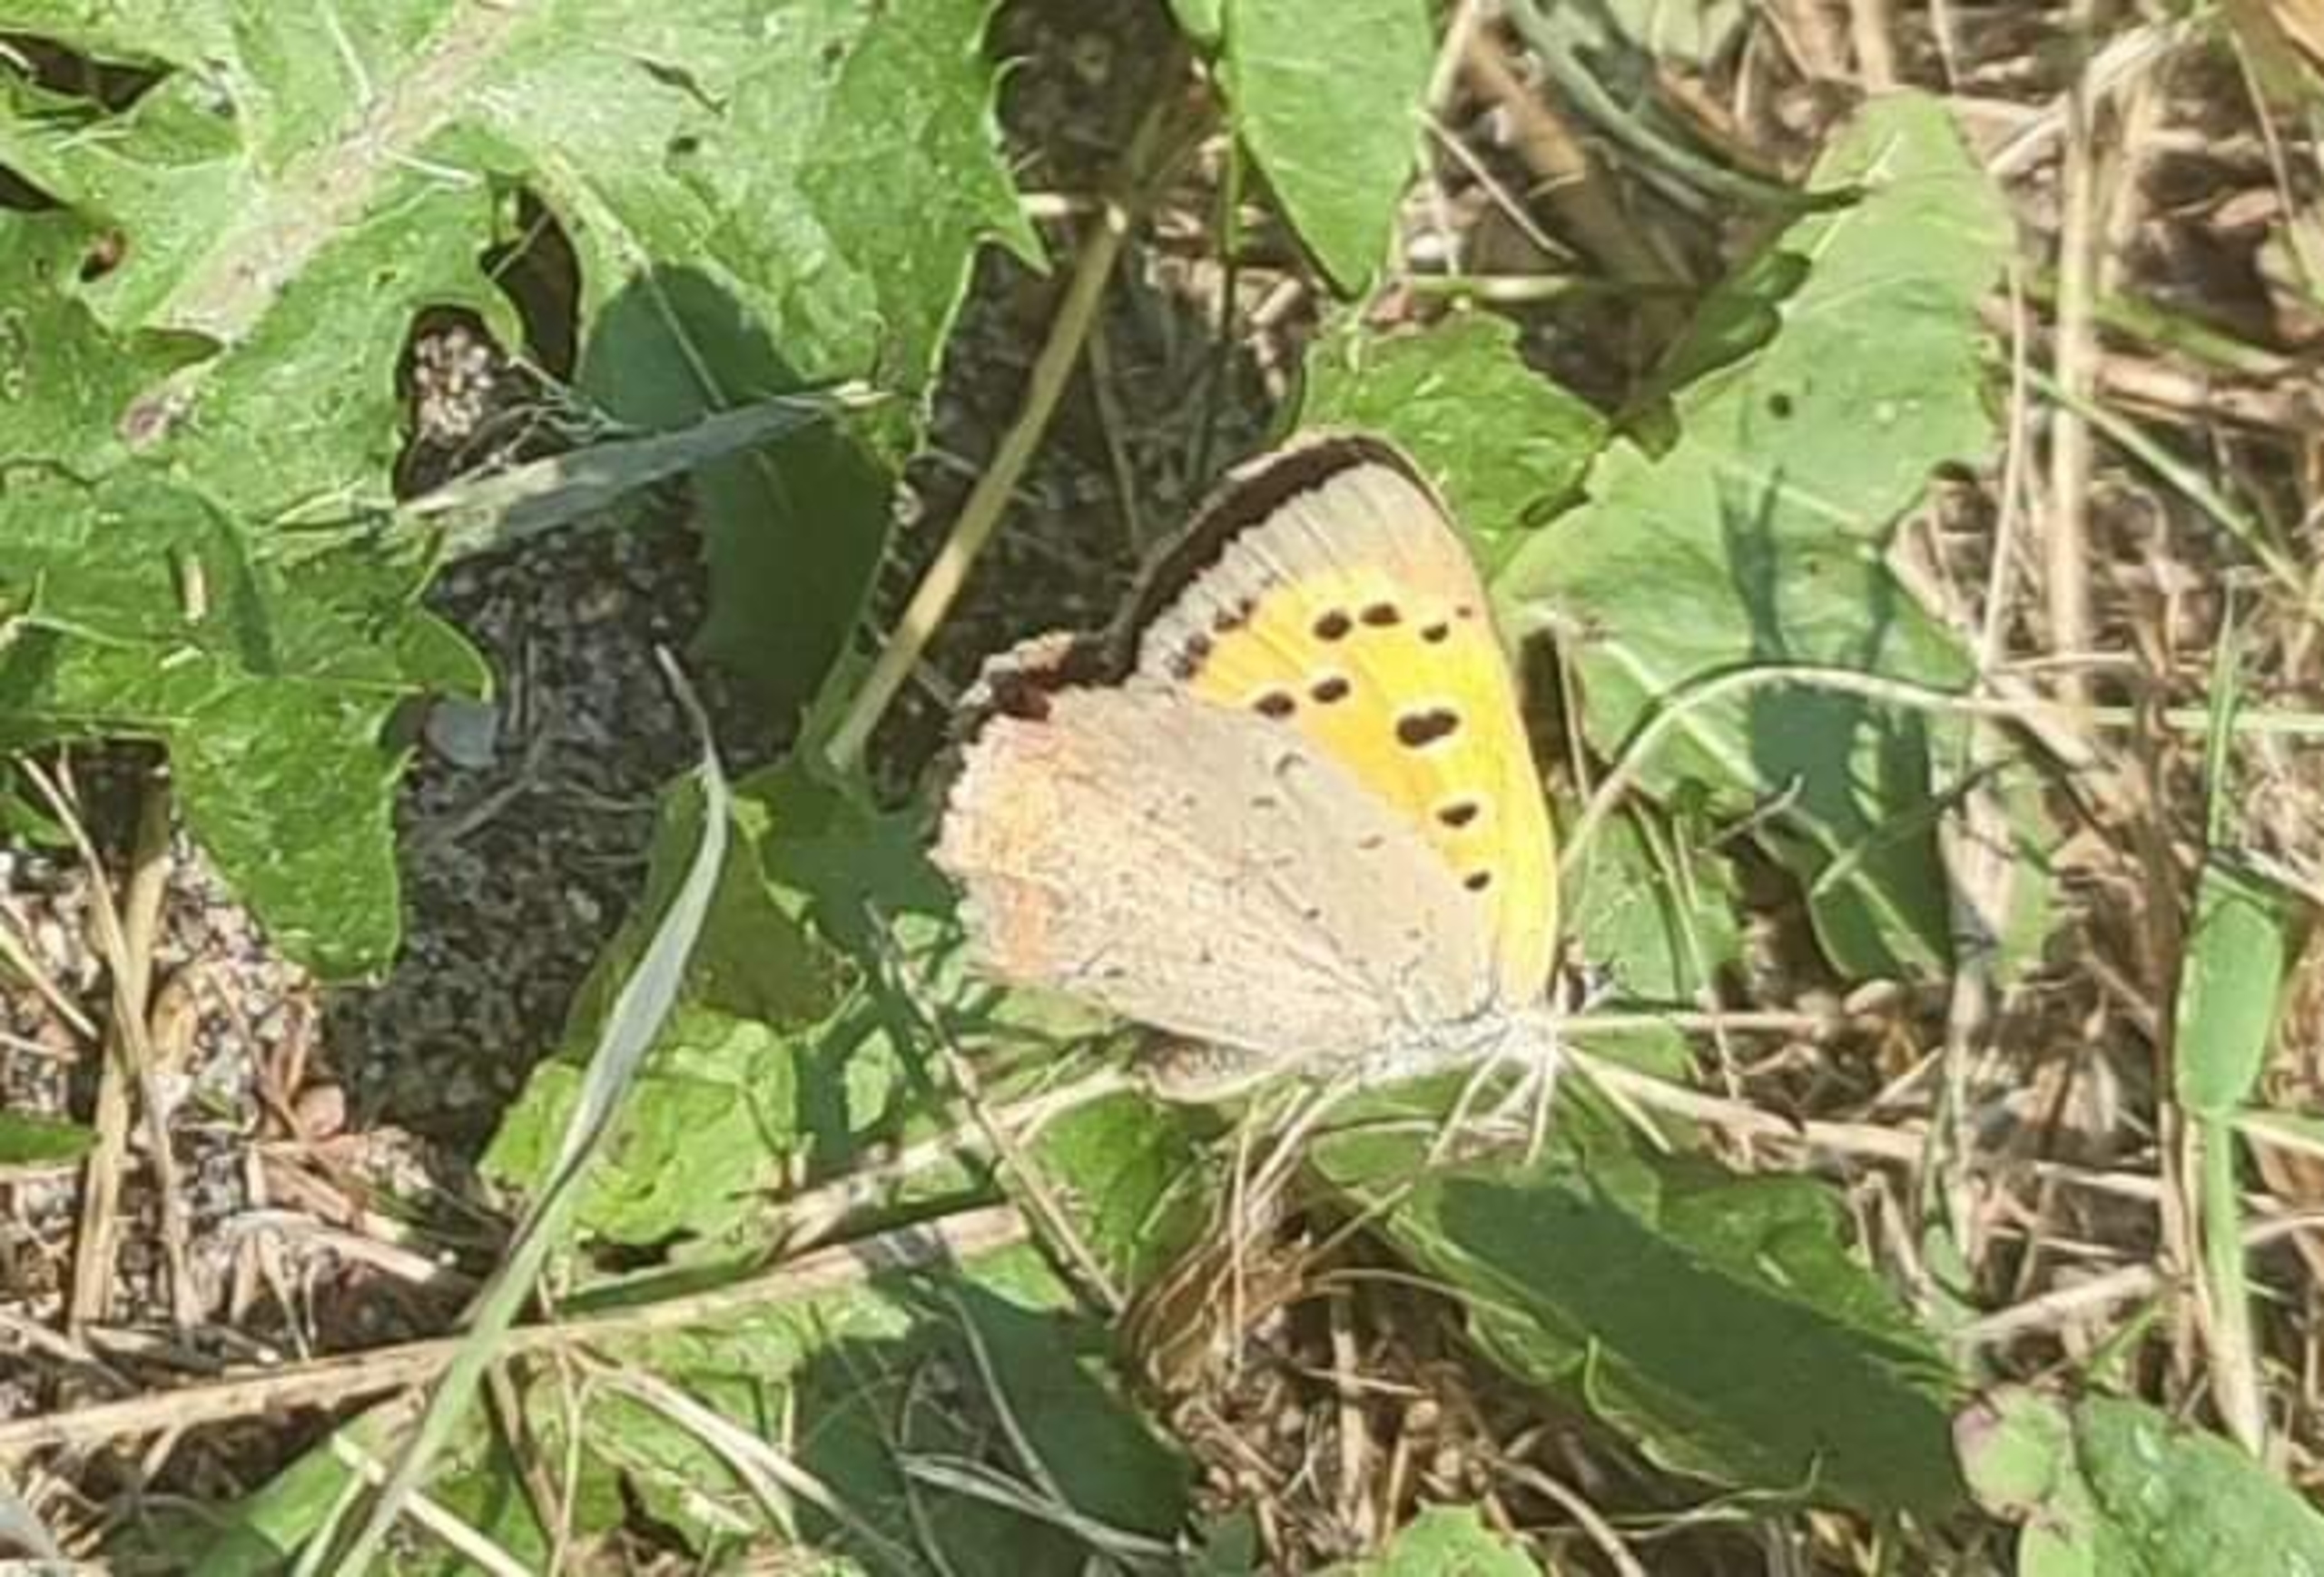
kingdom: Animalia
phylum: Arthropoda
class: Insecta
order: Lepidoptera
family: Lycaenidae
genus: Lycaena
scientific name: Lycaena phlaeas
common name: Lille ildfugl
